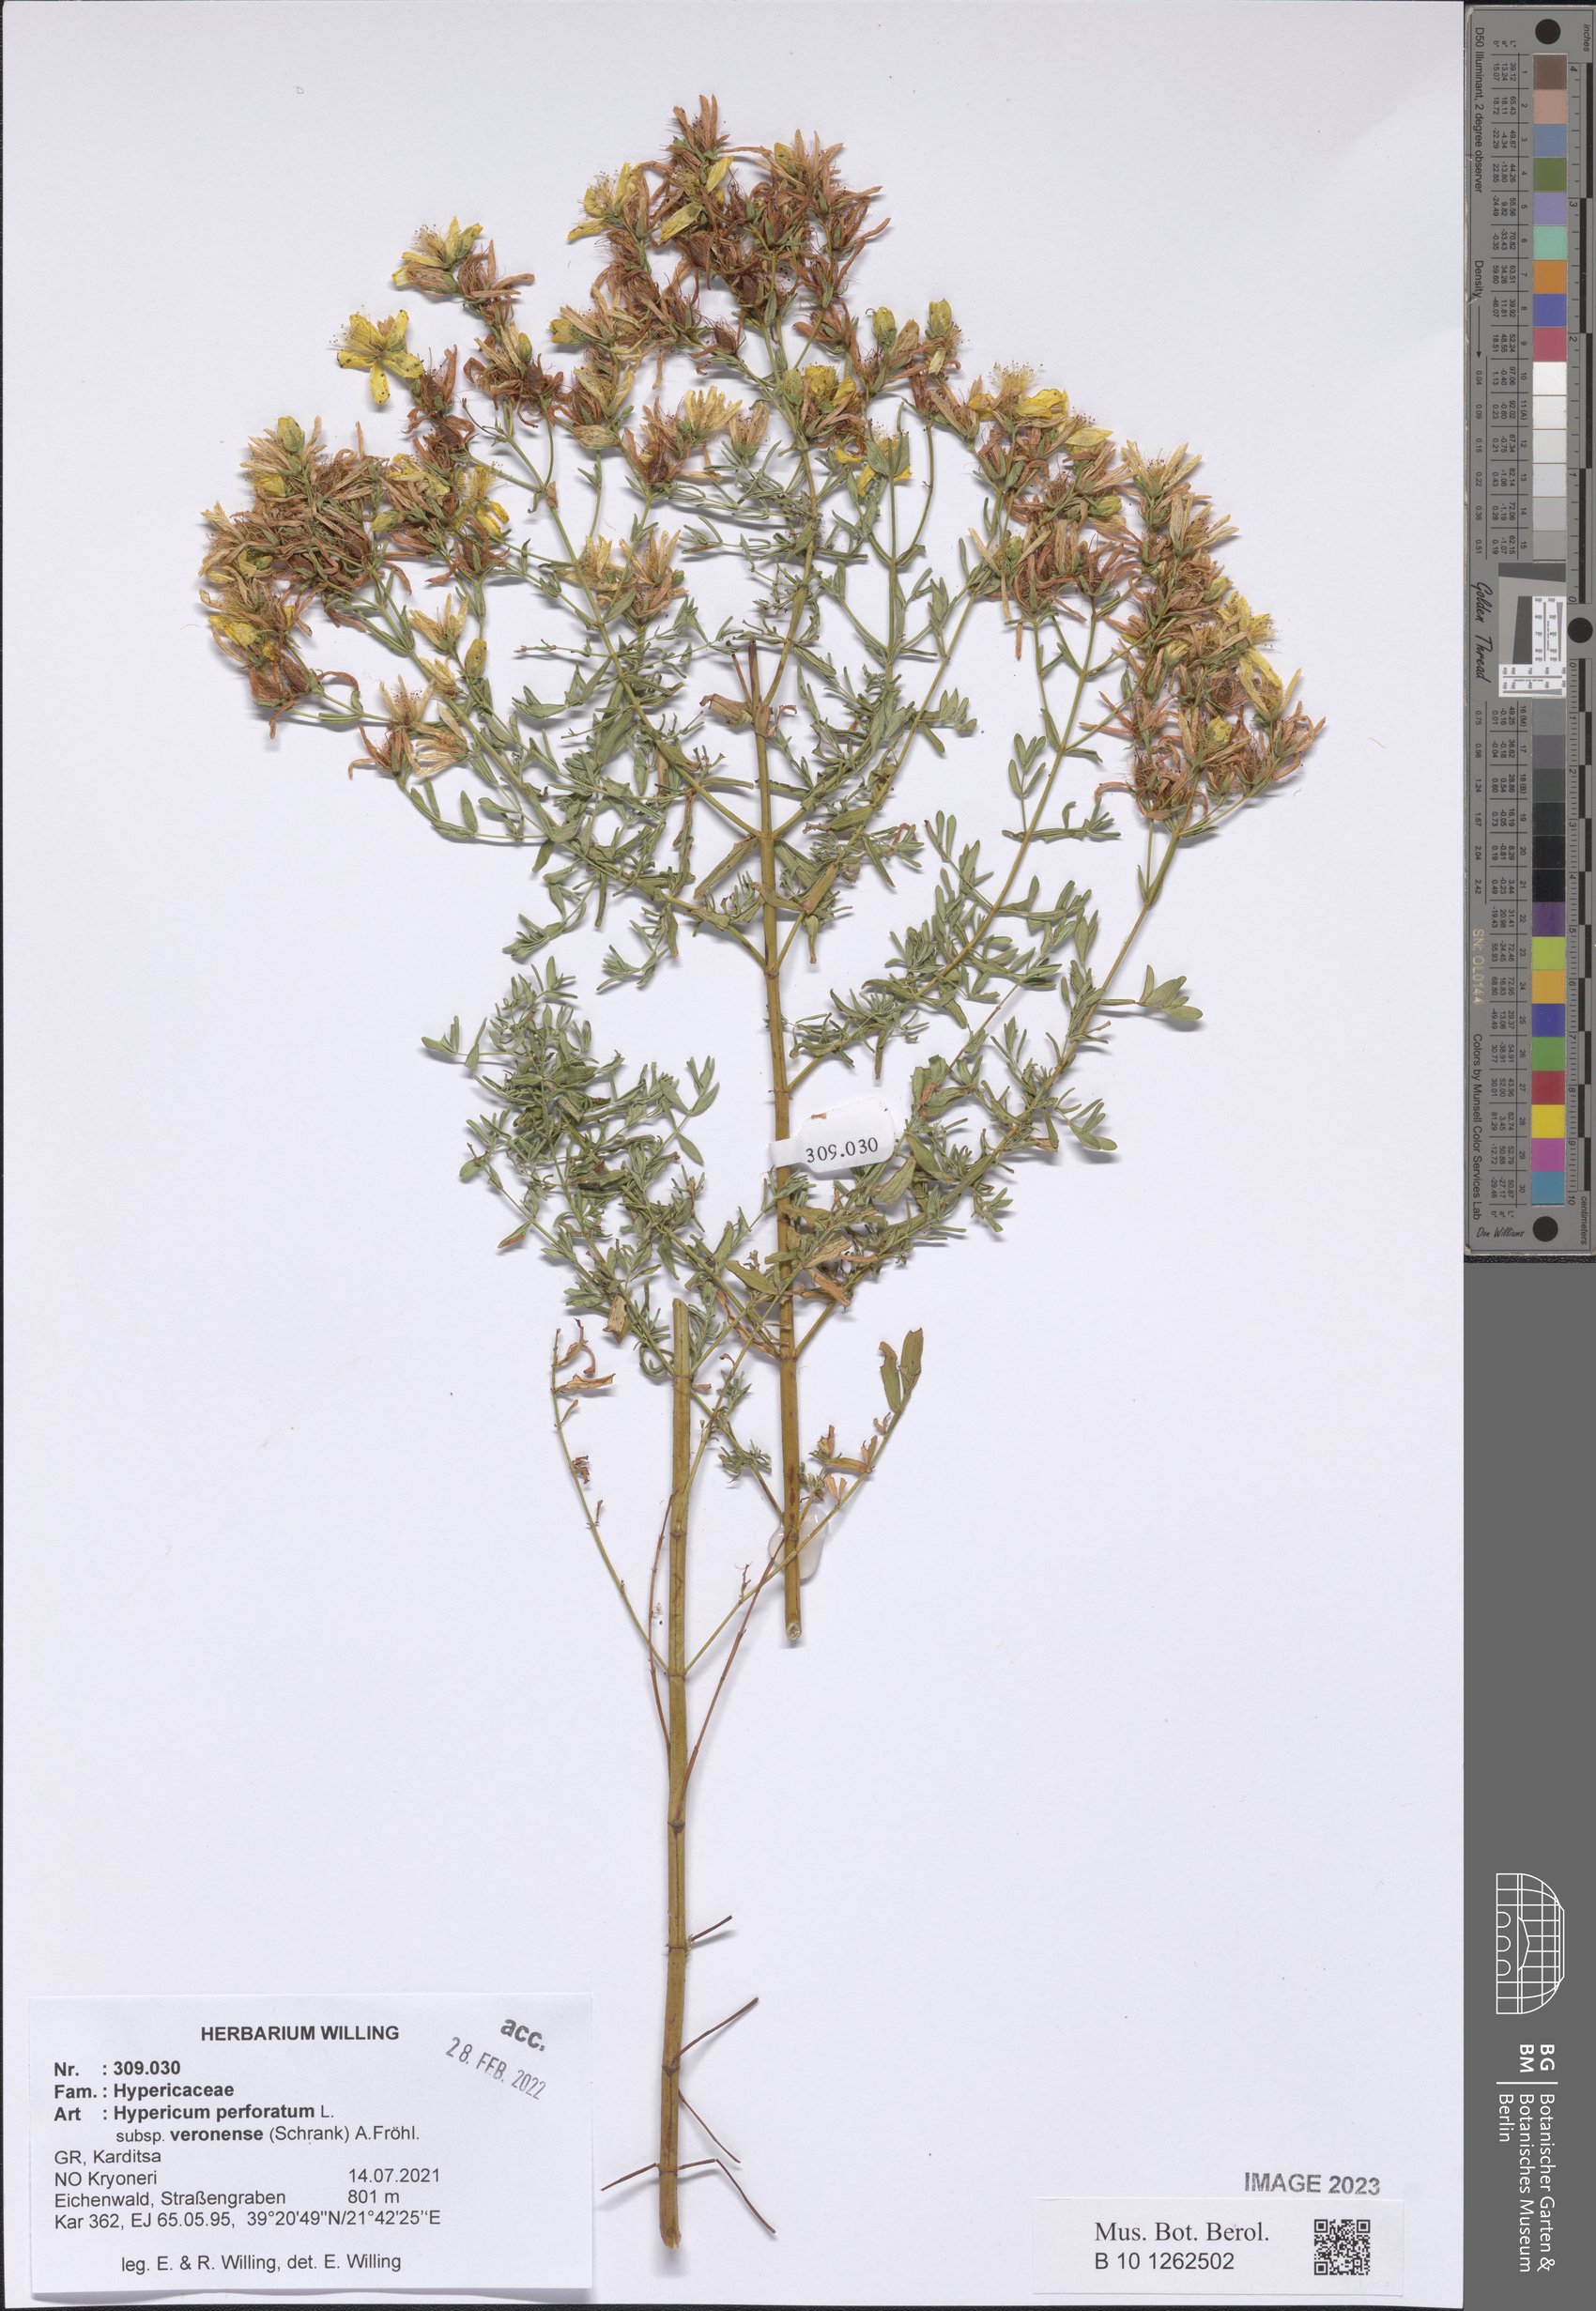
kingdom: Plantae
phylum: Tracheophyta
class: Magnoliopsida
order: Malpighiales
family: Hypericaceae
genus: Hypericum
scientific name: Hypericum veronense
